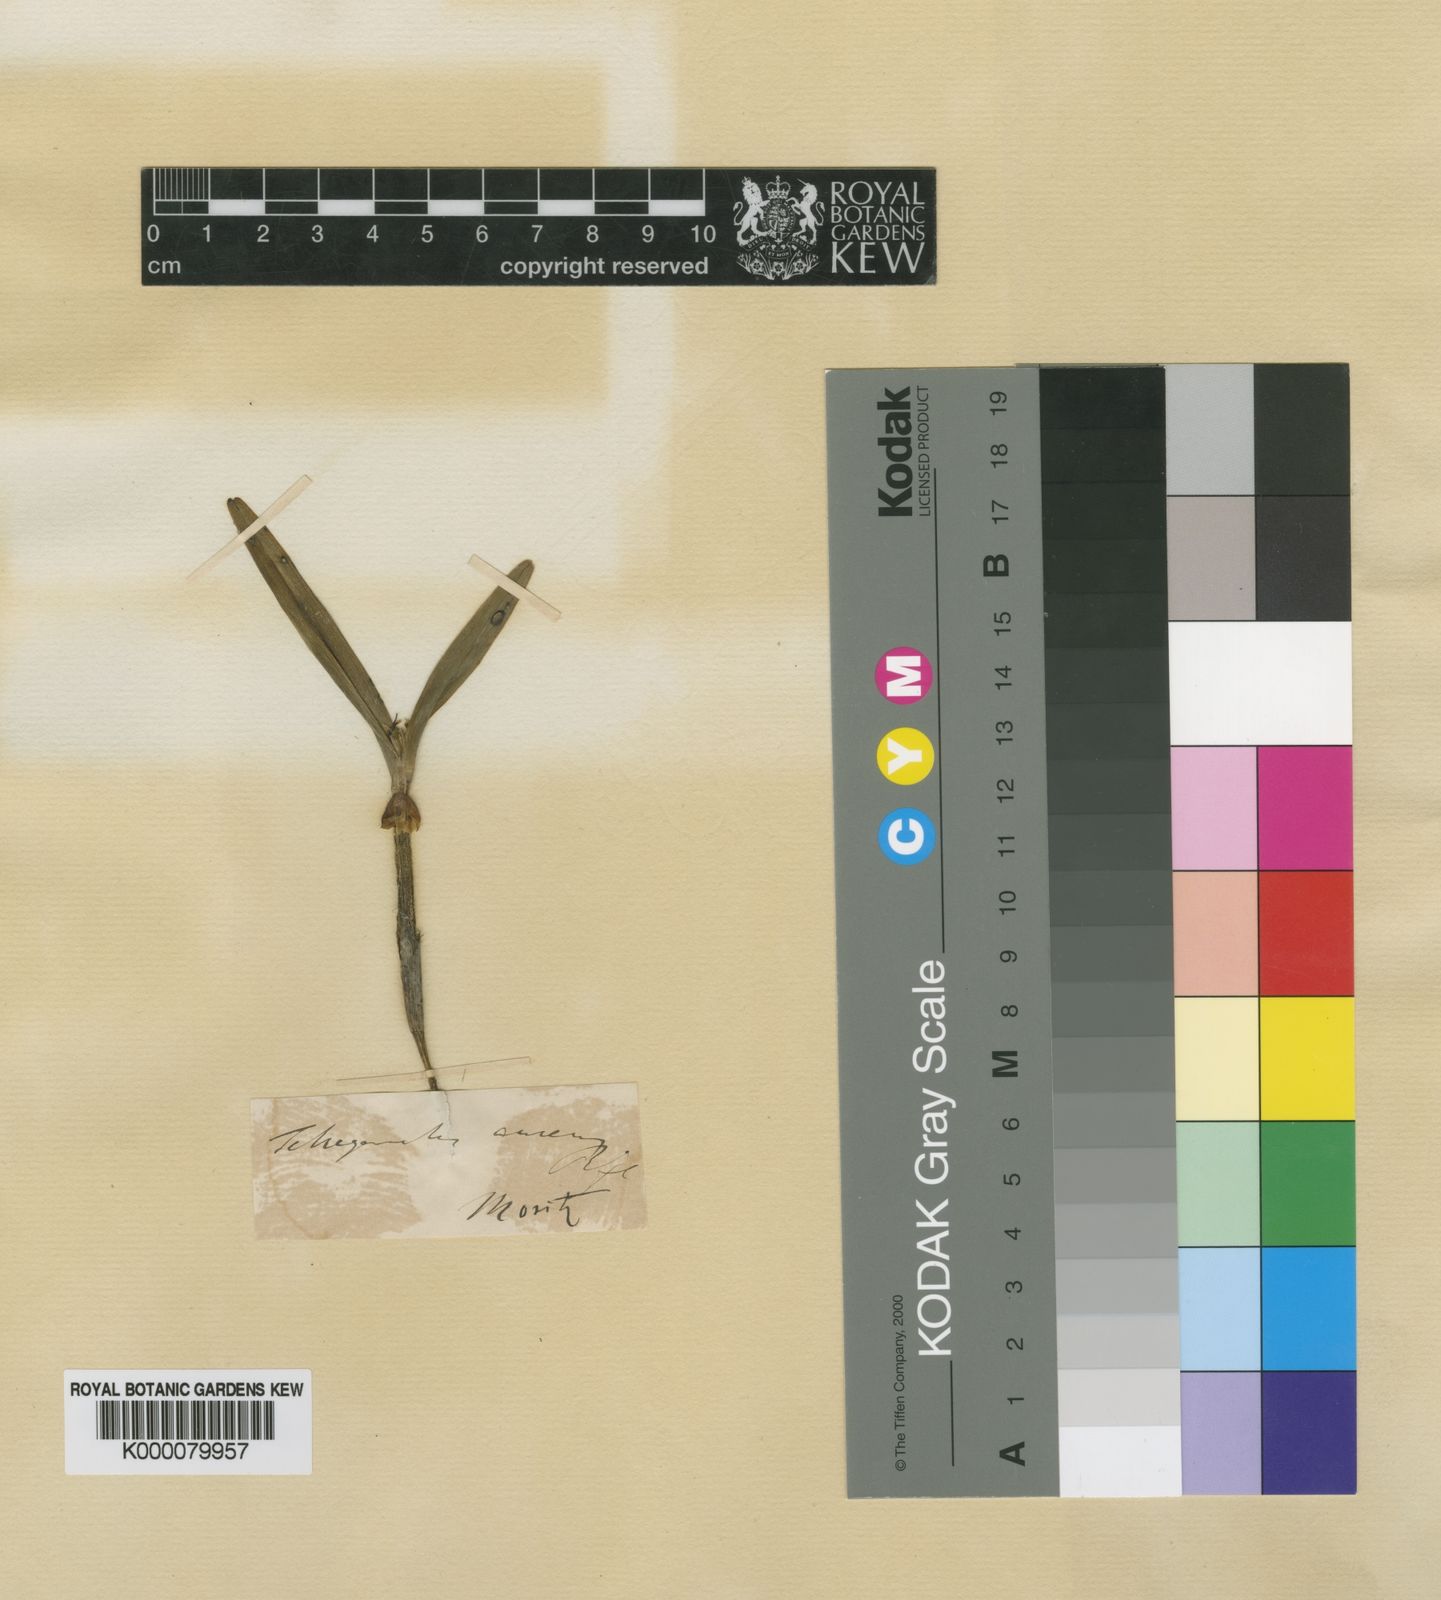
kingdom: Plantae
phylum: Tracheophyta
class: Liliopsida
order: Asparagales
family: Orchidaceae
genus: Scaphyglottis
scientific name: Scaphyglottis aurea
